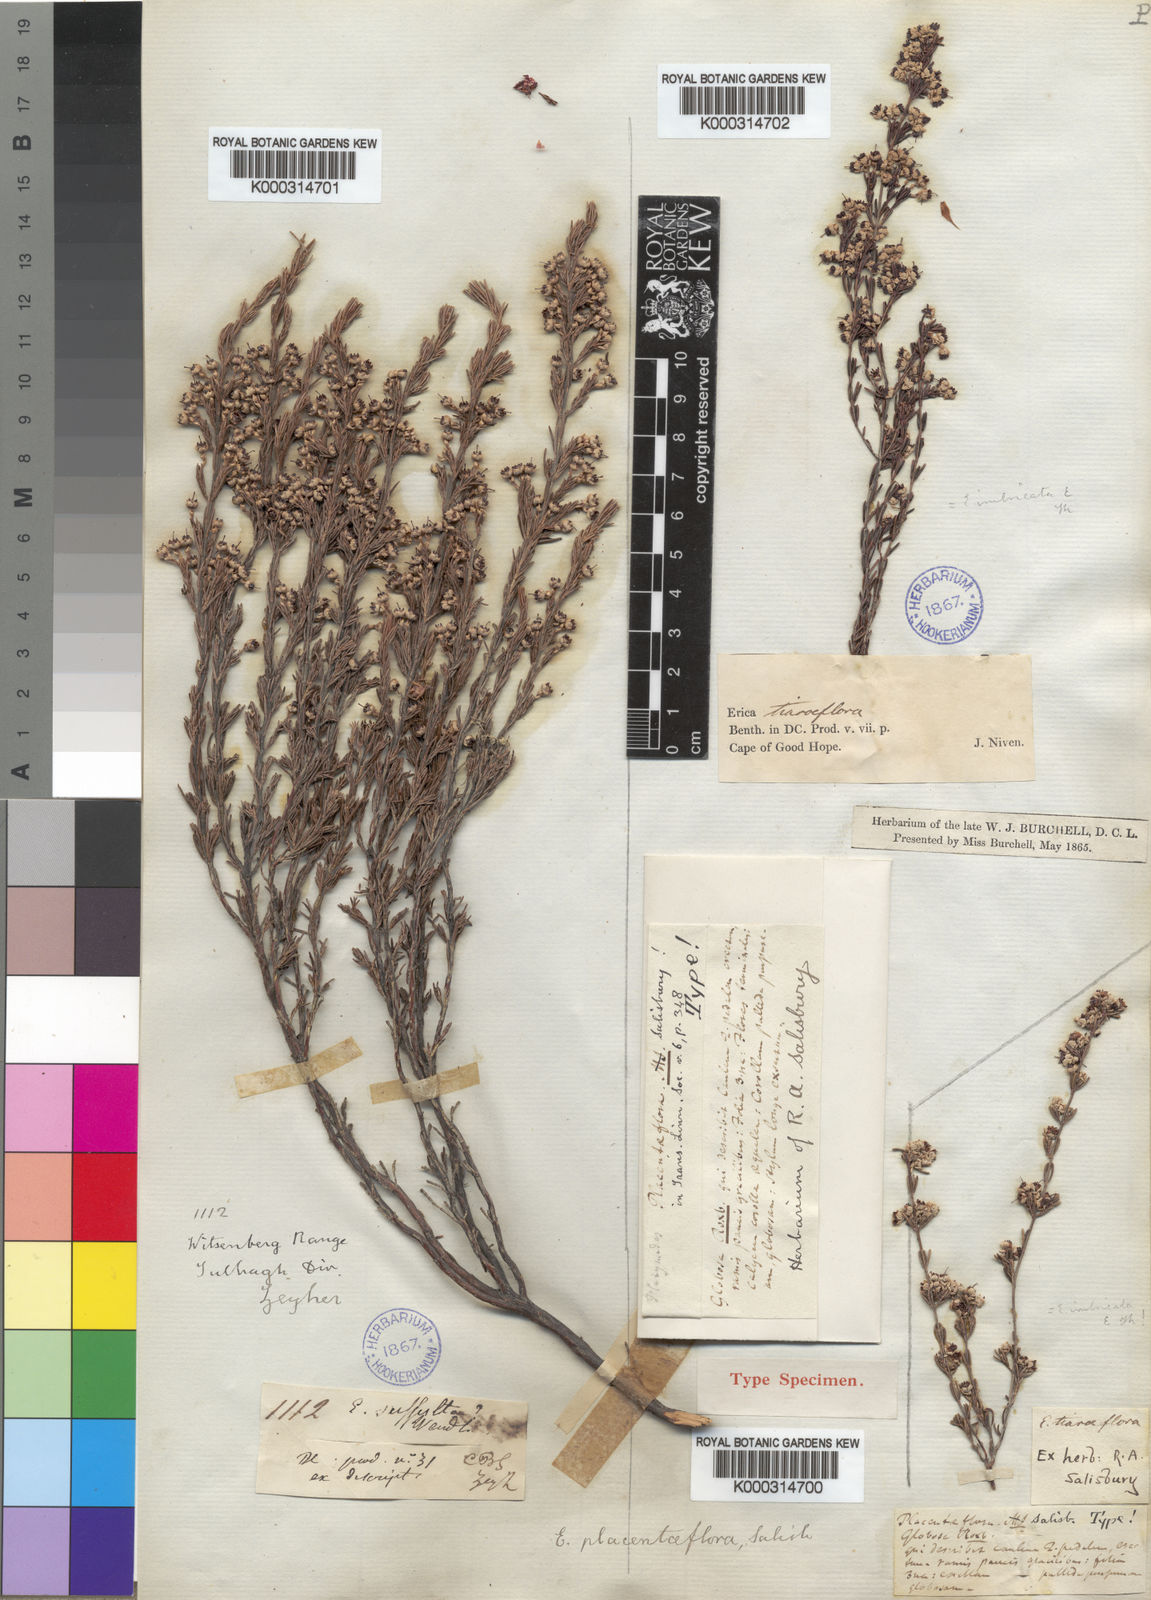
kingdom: Plantae
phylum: Tracheophyta
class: Magnoliopsida
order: Ericales
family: Ericaceae
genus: Erica
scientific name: Erica placentiflora
